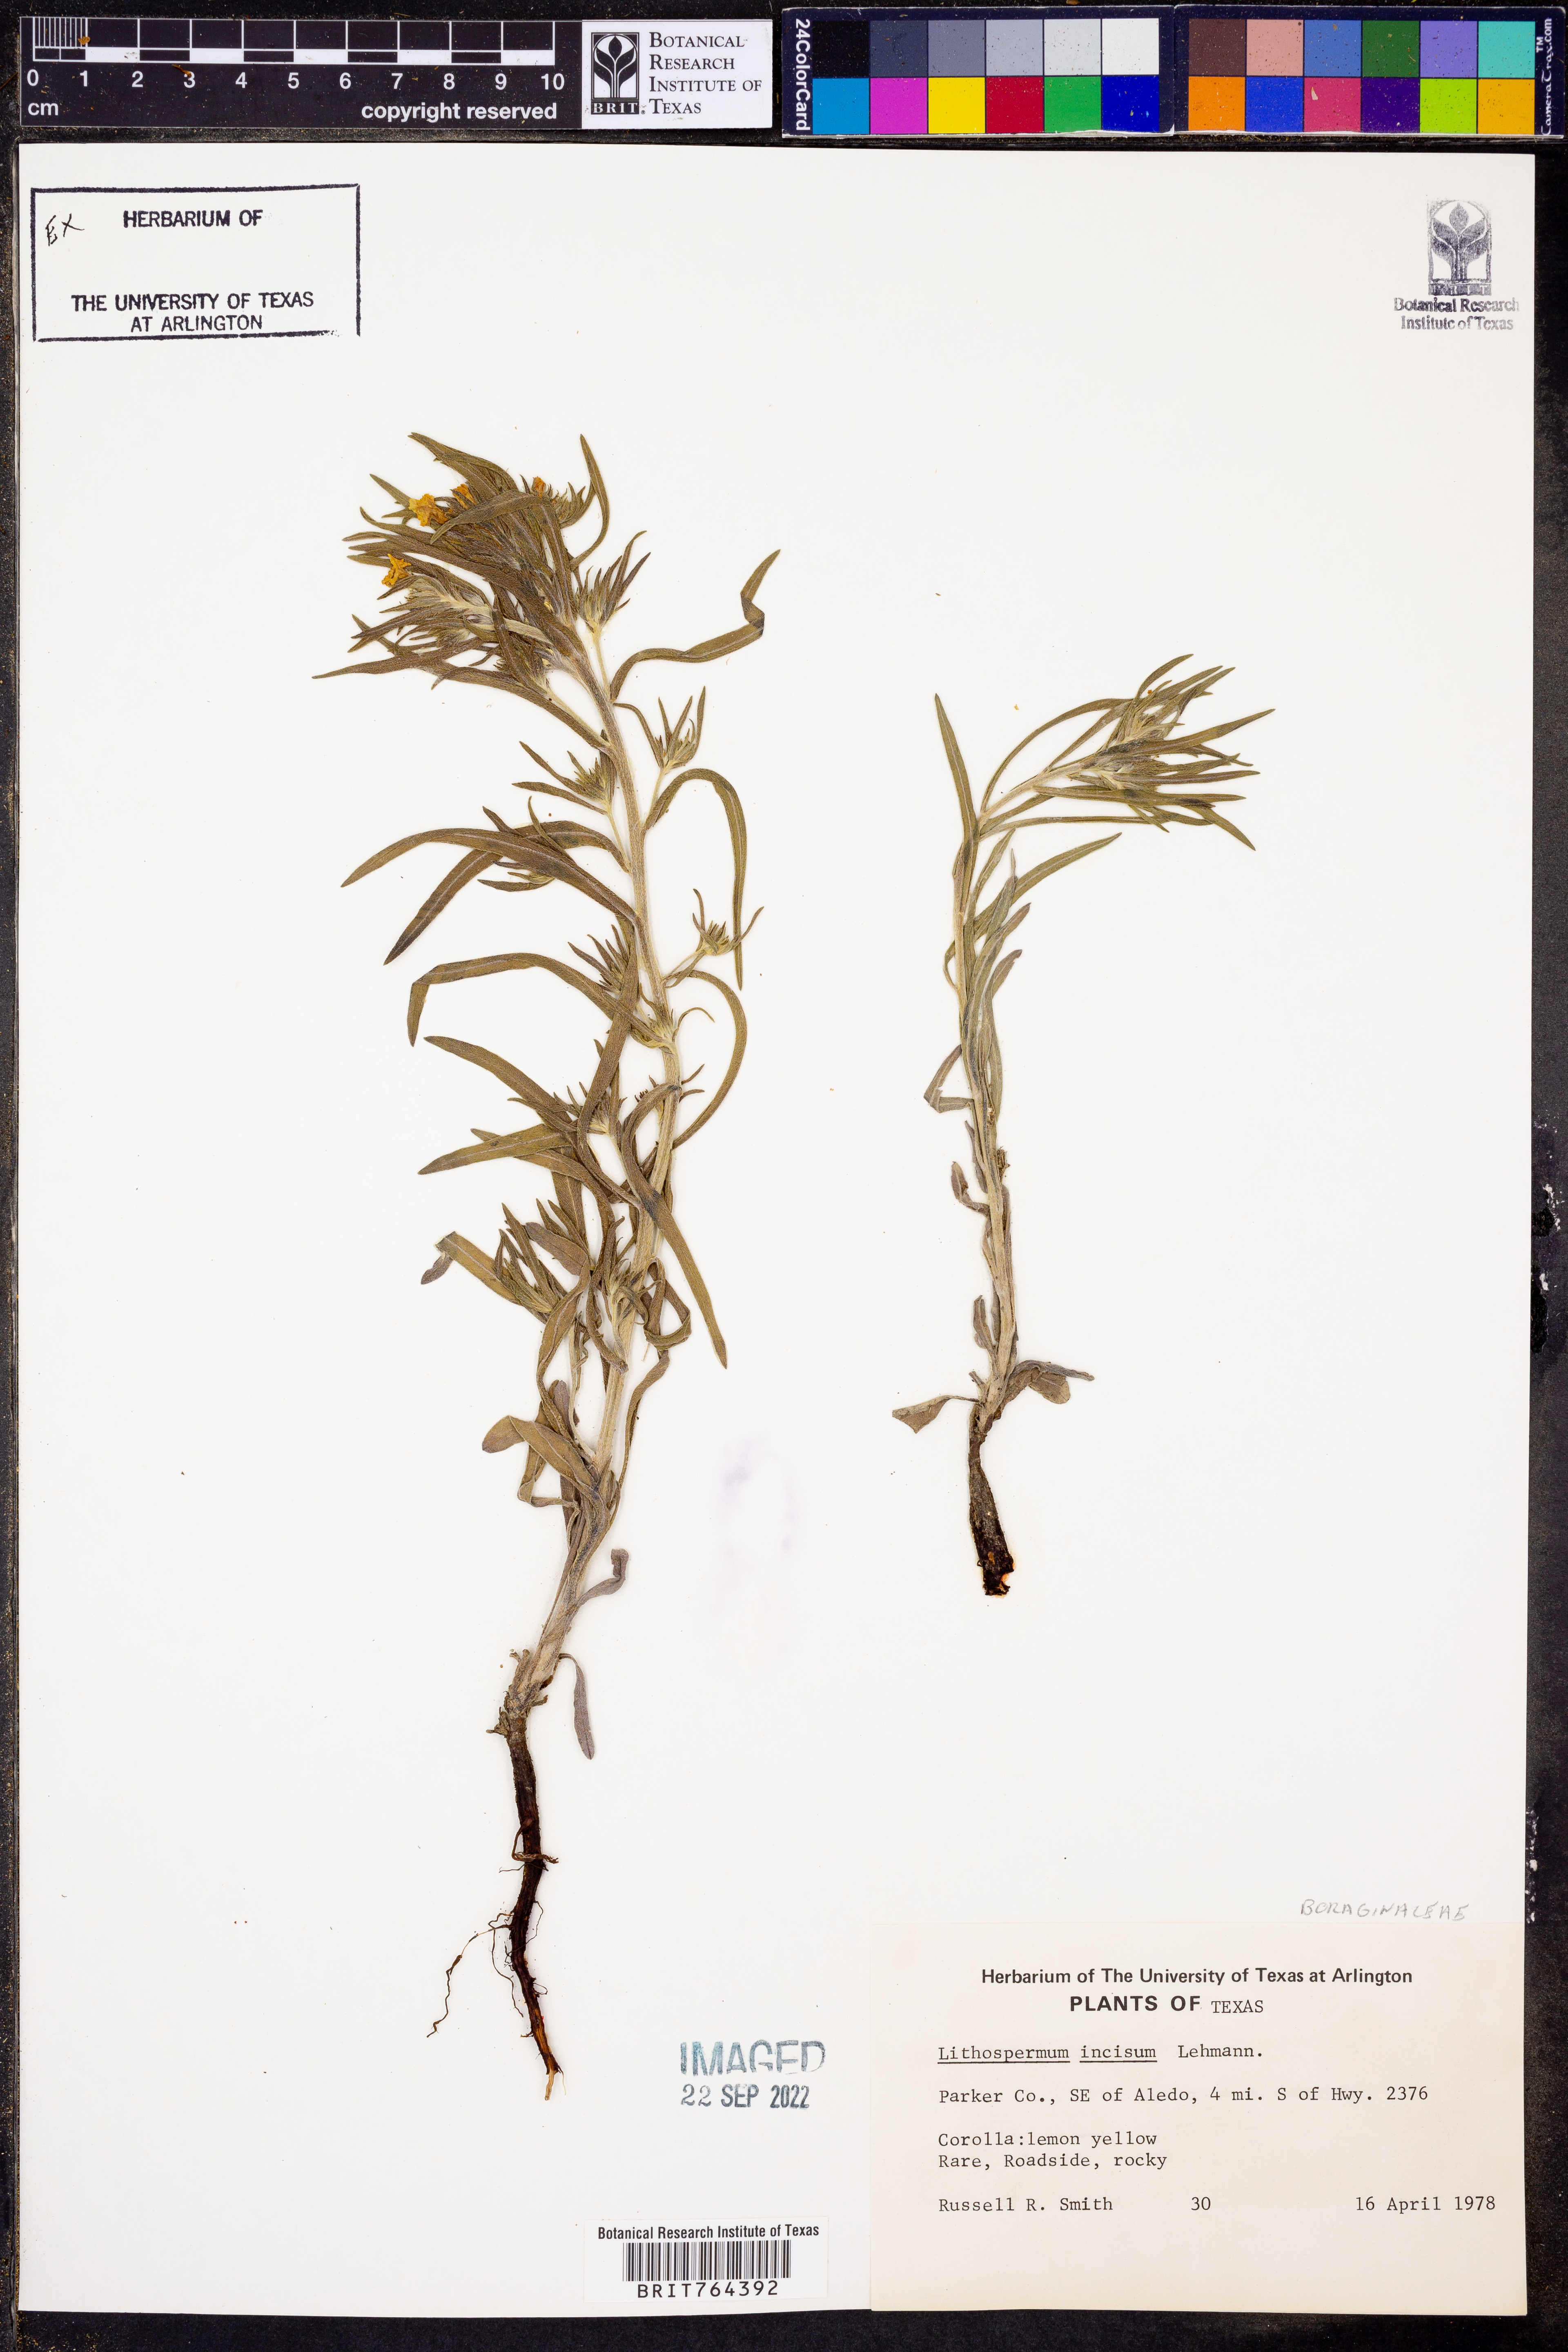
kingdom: Plantae
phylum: Tracheophyta
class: Magnoliopsida
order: Boraginales
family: Boraginaceae
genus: Lithospermum
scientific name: Lithospermum incisum
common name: Fringed gromwell
